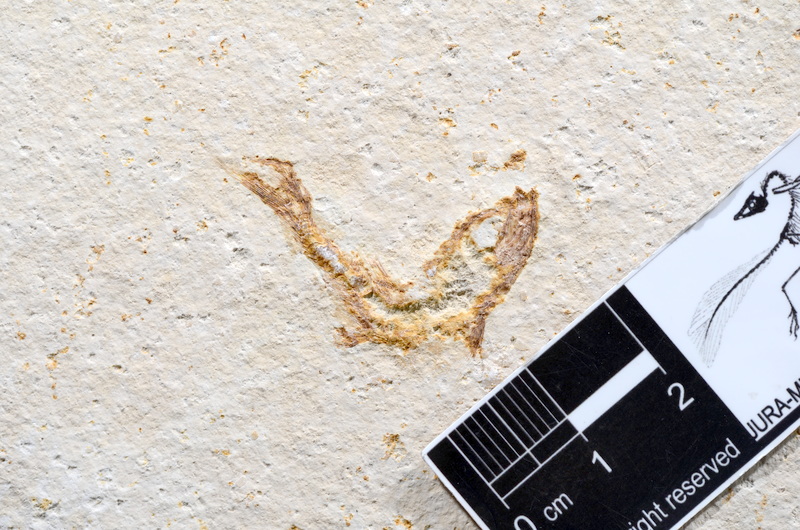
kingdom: Animalia
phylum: Chordata
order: Salmoniformes
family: Orthogonikleithridae
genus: Leptolepides
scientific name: Leptolepides sprattiformis
